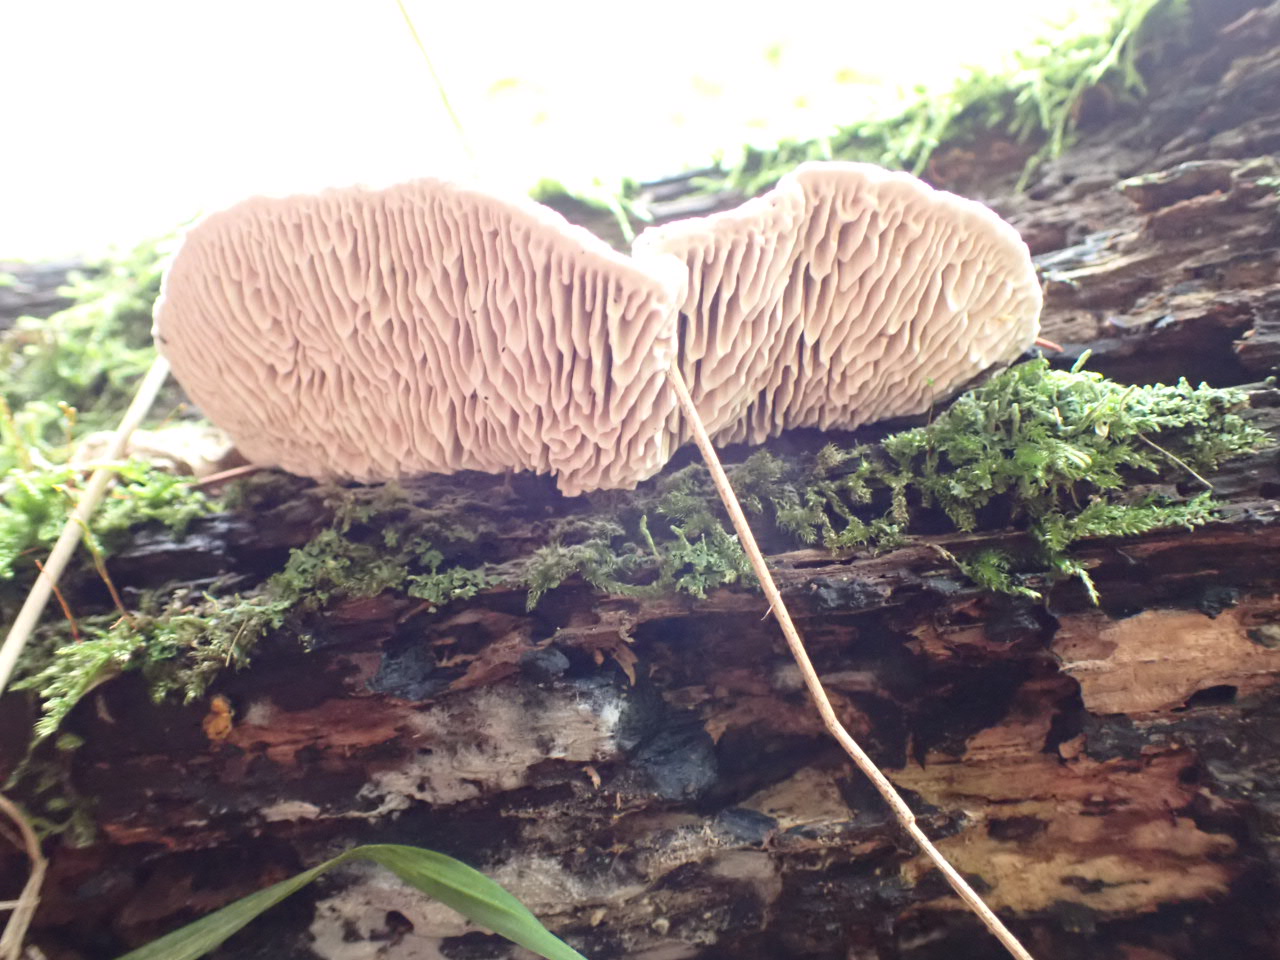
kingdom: Fungi
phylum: Basidiomycota
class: Agaricomycetes
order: Polyporales
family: Fomitopsidaceae
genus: Daedalea
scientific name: Daedalea quercina
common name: ege-labyrintsvamp
